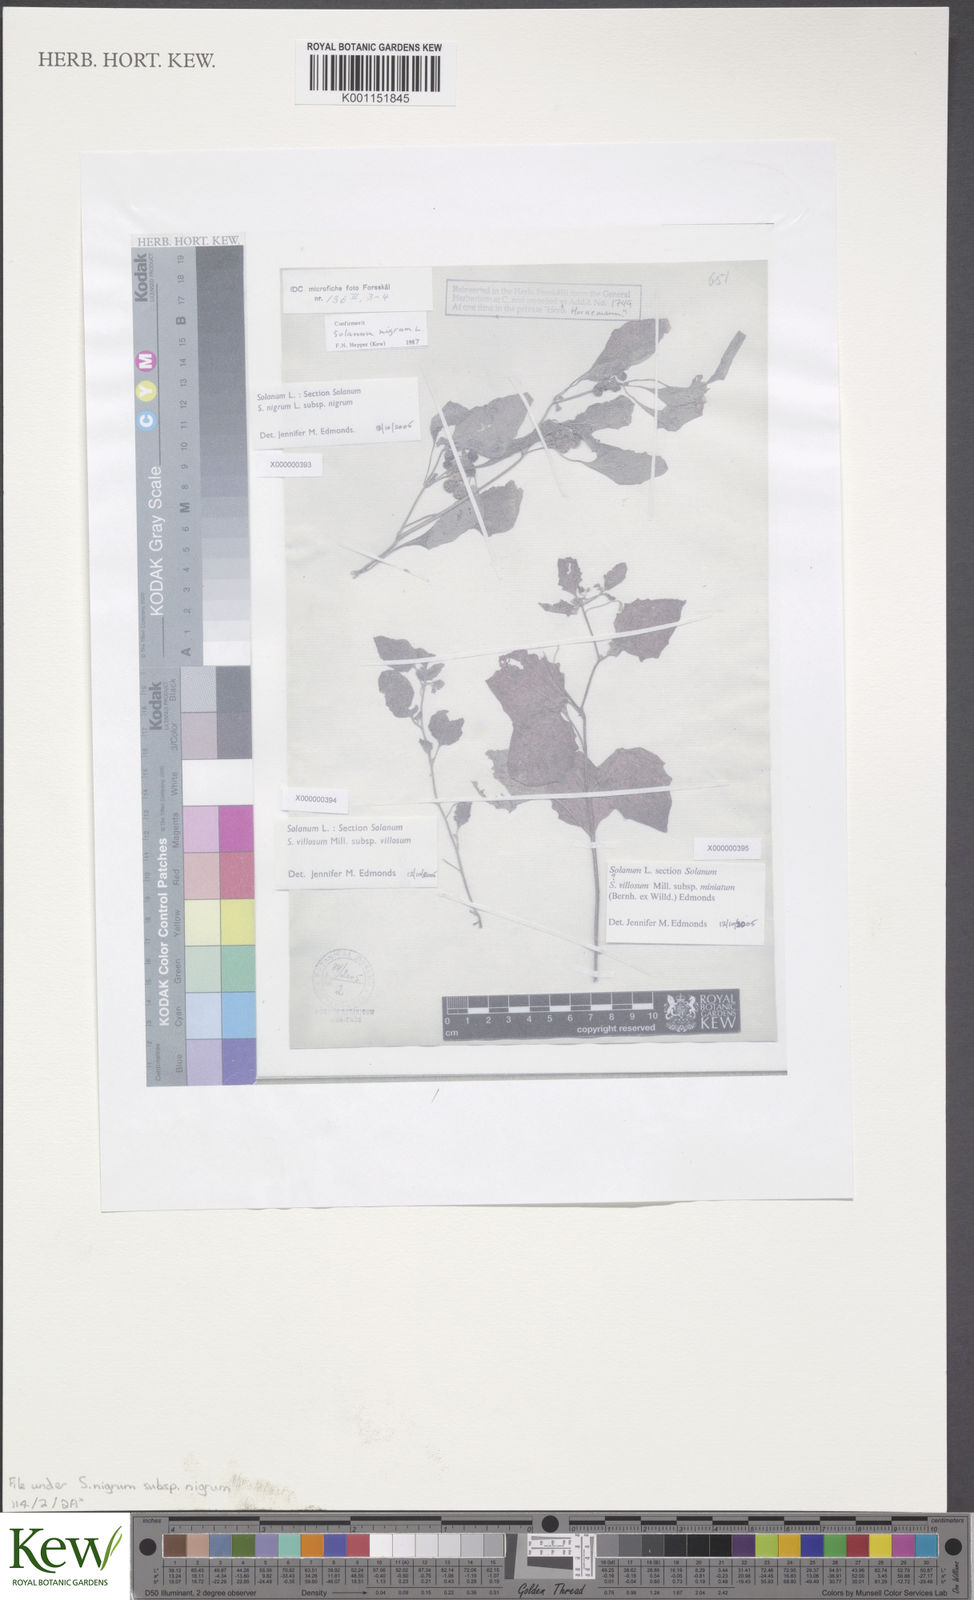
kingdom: Plantae
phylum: Tracheophyta
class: Magnoliopsida
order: Solanales
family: Solanaceae
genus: Solanum
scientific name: Solanum nigrum
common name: Black nightshade
